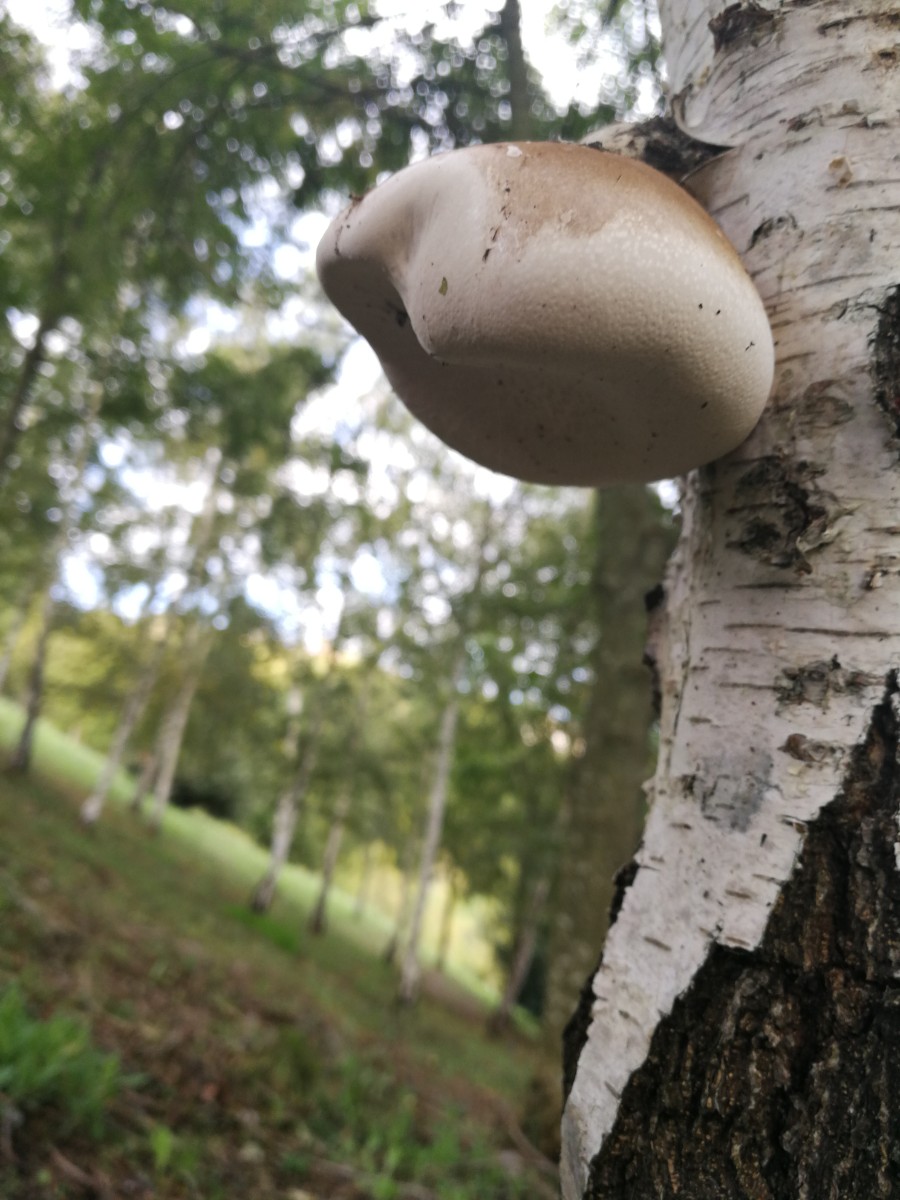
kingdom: Fungi
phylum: Basidiomycota
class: Agaricomycetes
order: Polyporales
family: Fomitopsidaceae
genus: Fomitopsis
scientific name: Fomitopsis betulina
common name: birkeporesvamp
